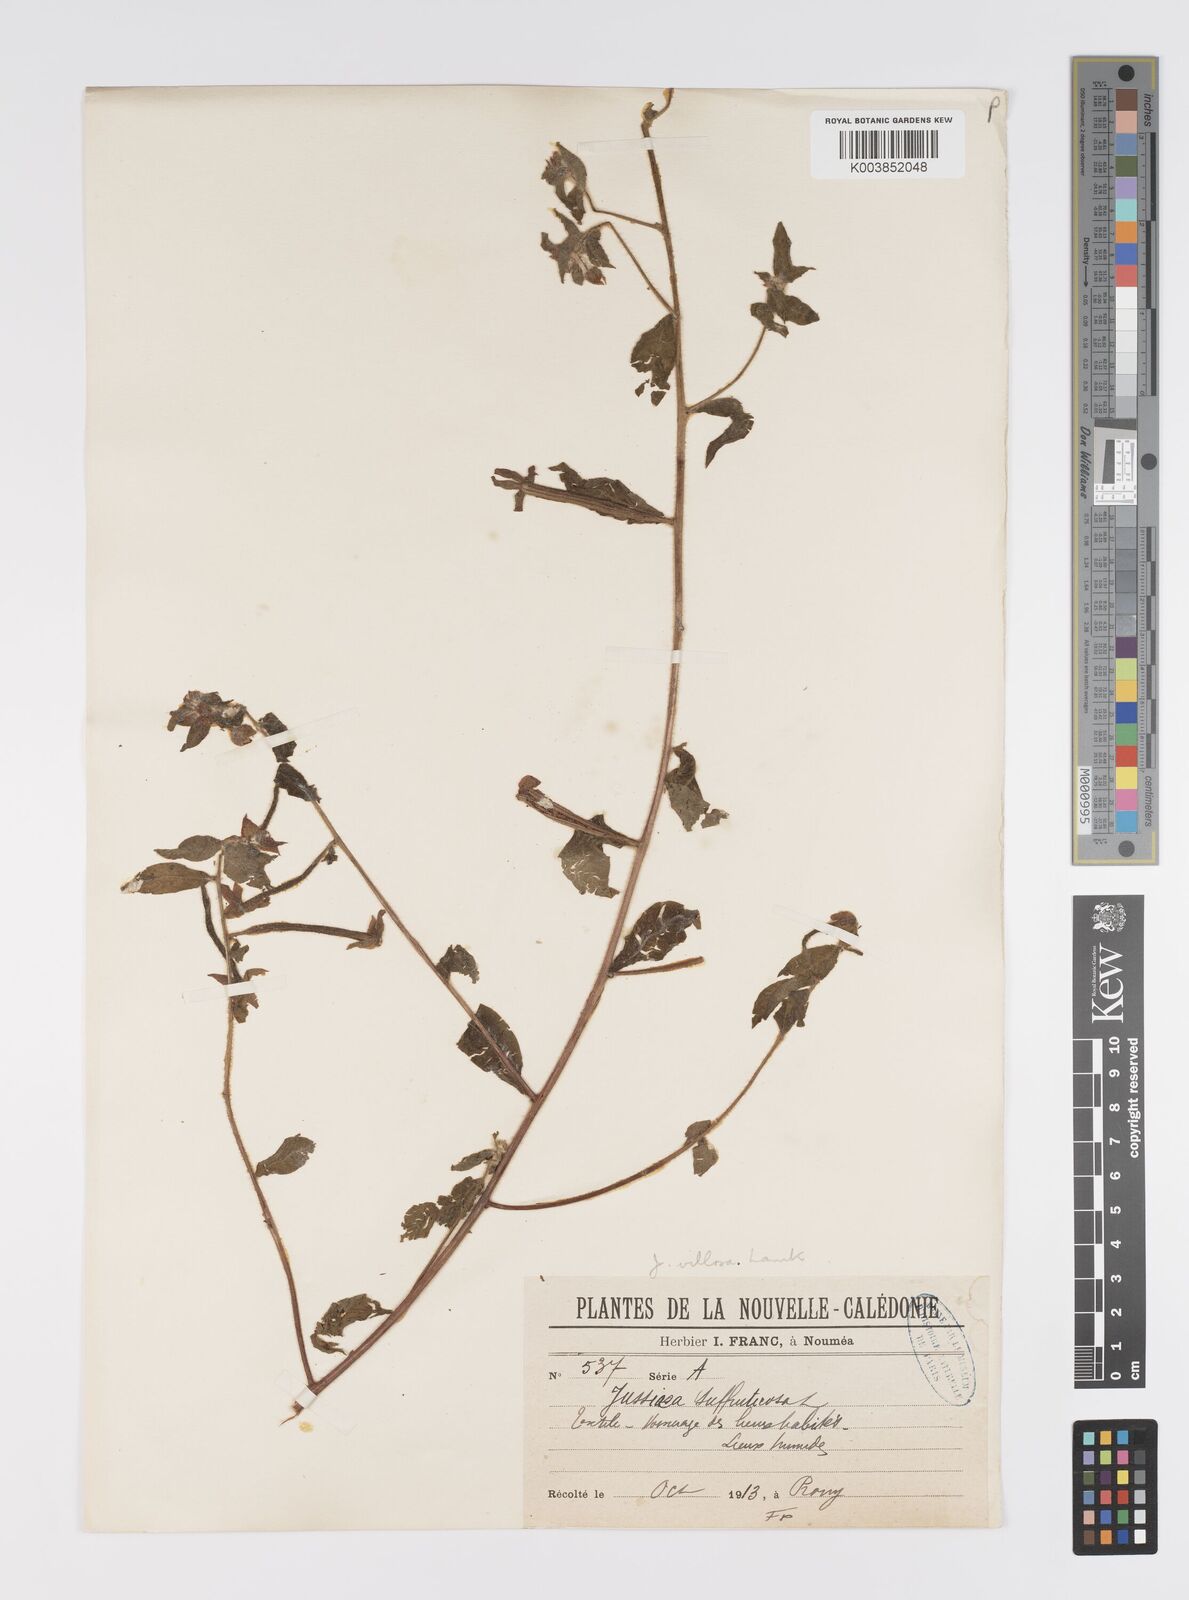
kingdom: Plantae
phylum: Tracheophyta
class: Magnoliopsida
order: Myrtales
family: Onagraceae
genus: Ludwigia
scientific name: Ludwigia octovalvis
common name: Water-primrose
